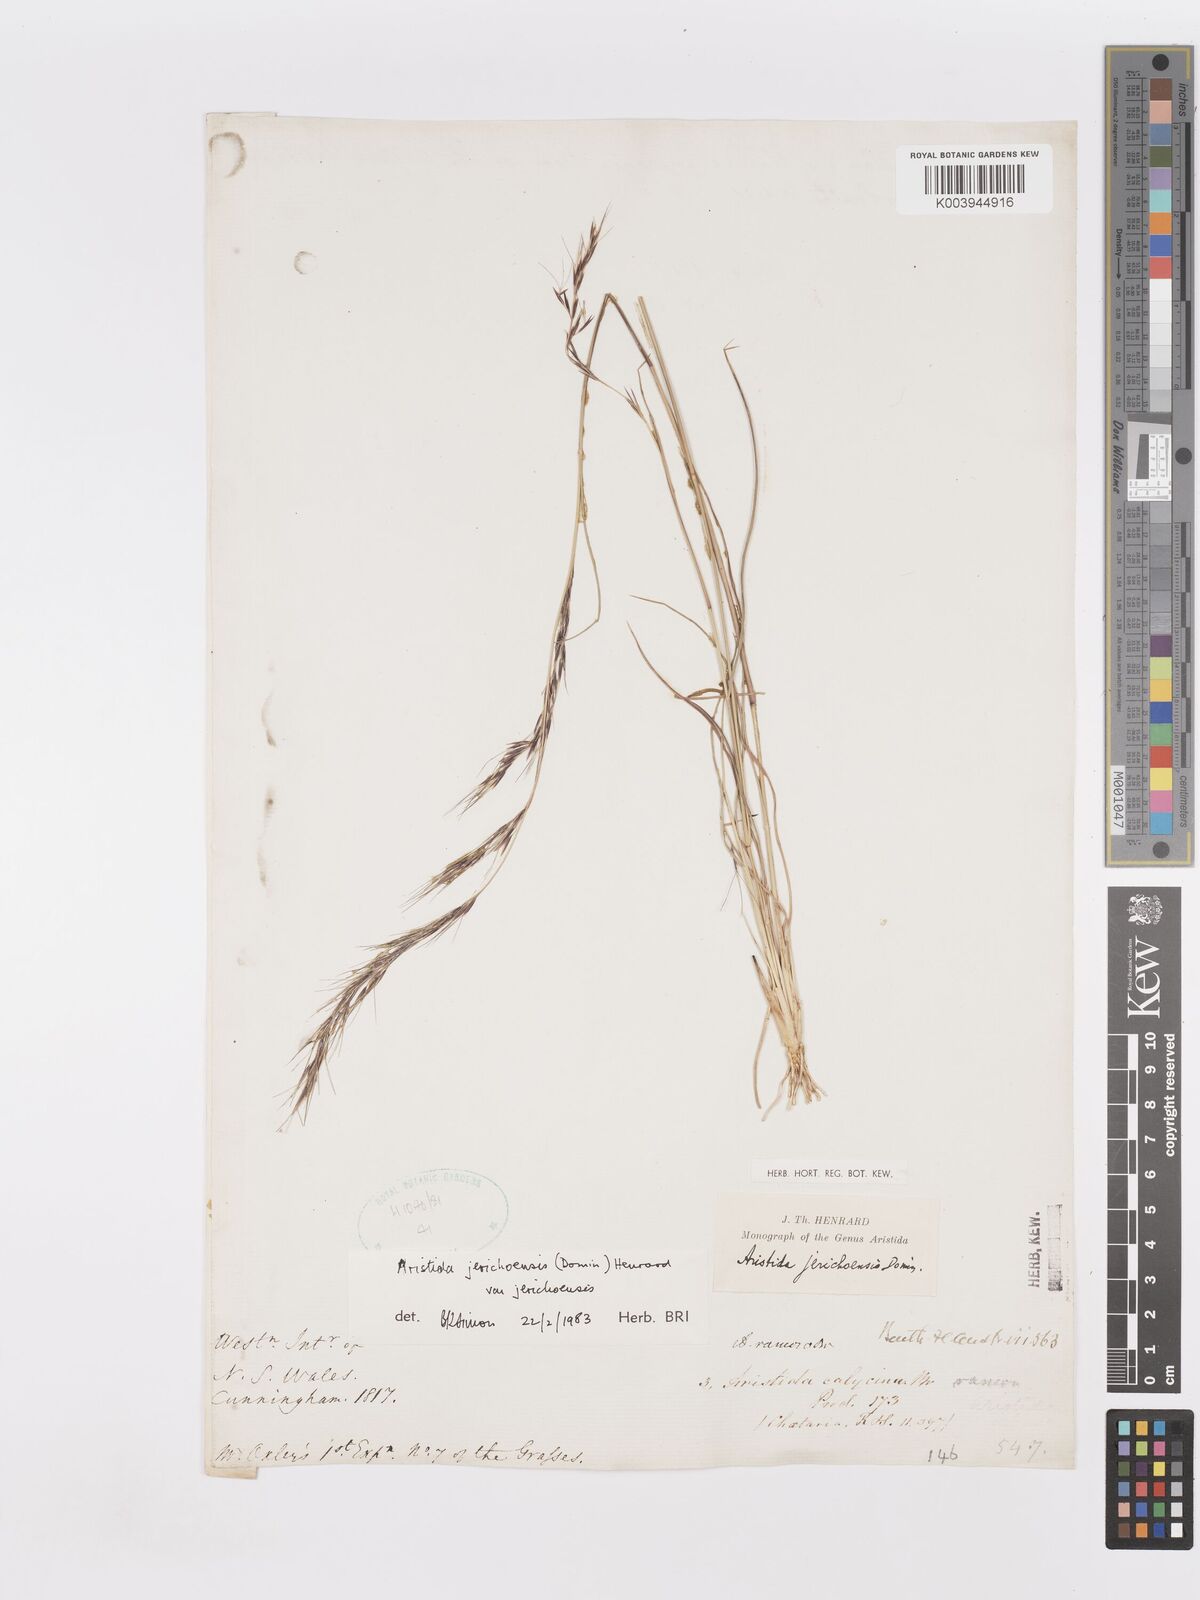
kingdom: Plantae
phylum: Tracheophyta
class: Liliopsida
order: Poales
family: Poaceae
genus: Aristida
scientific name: Aristida jerichoensis
